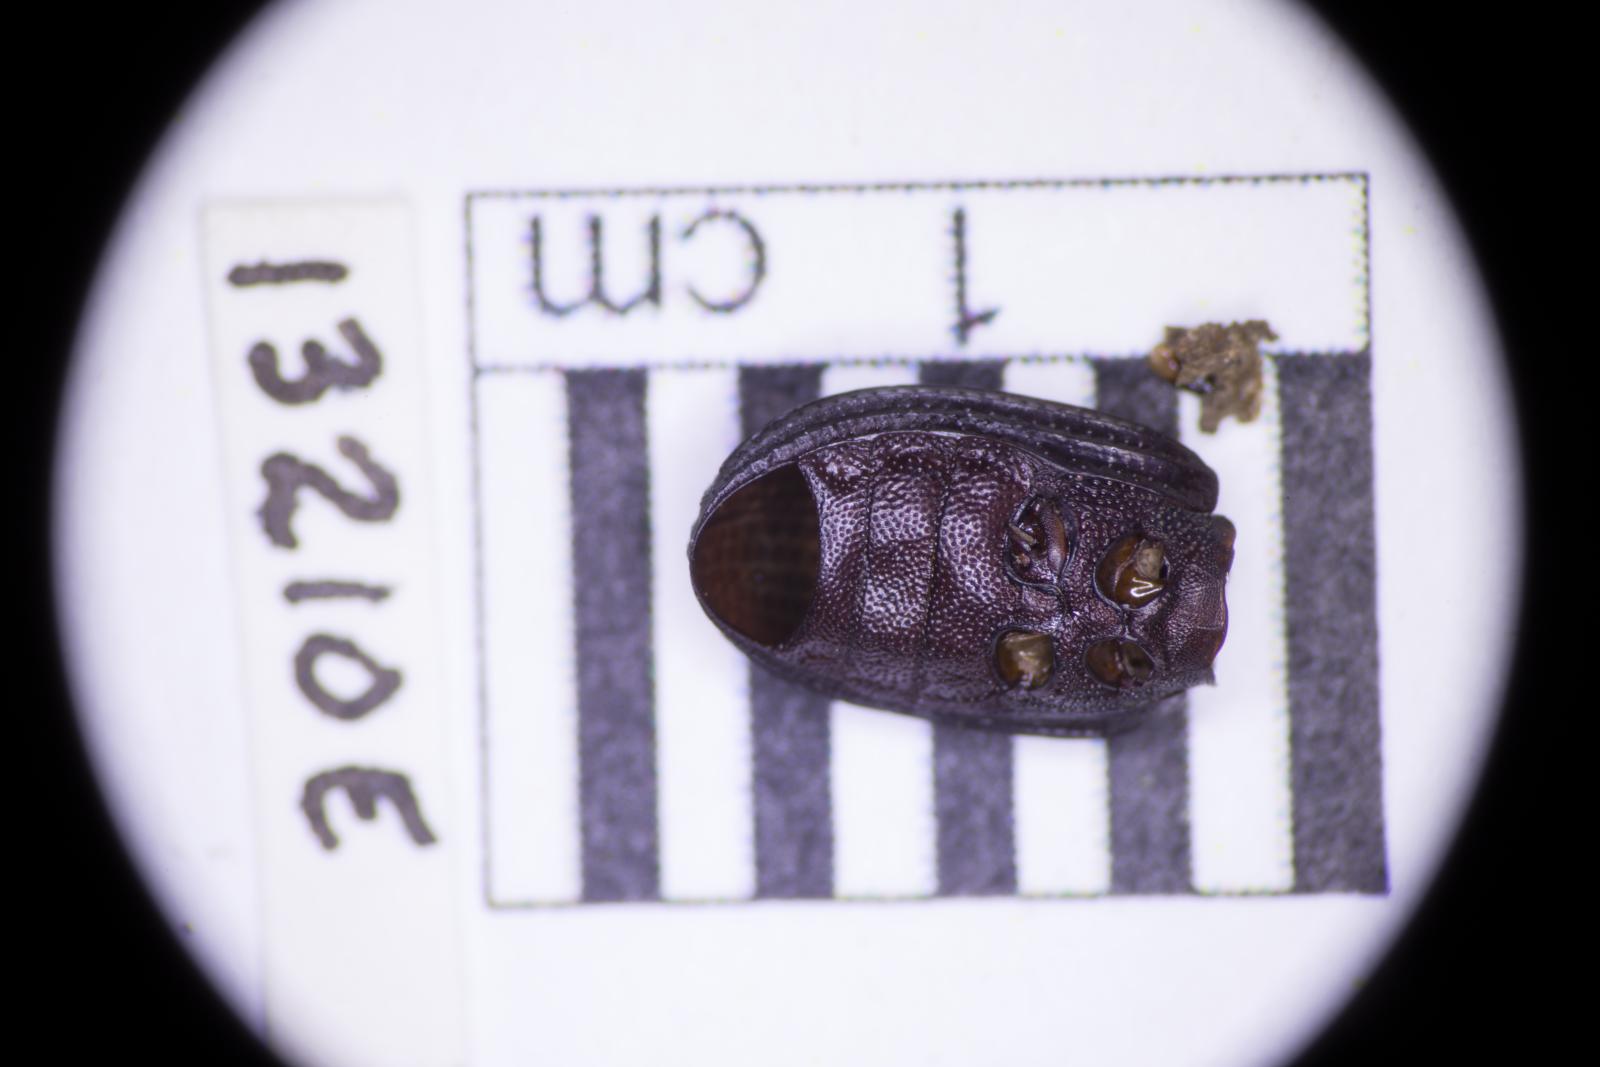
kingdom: Animalia
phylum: Arthropoda
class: Insecta
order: Coleoptera
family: Tenebrionidae
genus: Apsena
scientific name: Apsena laticornis
